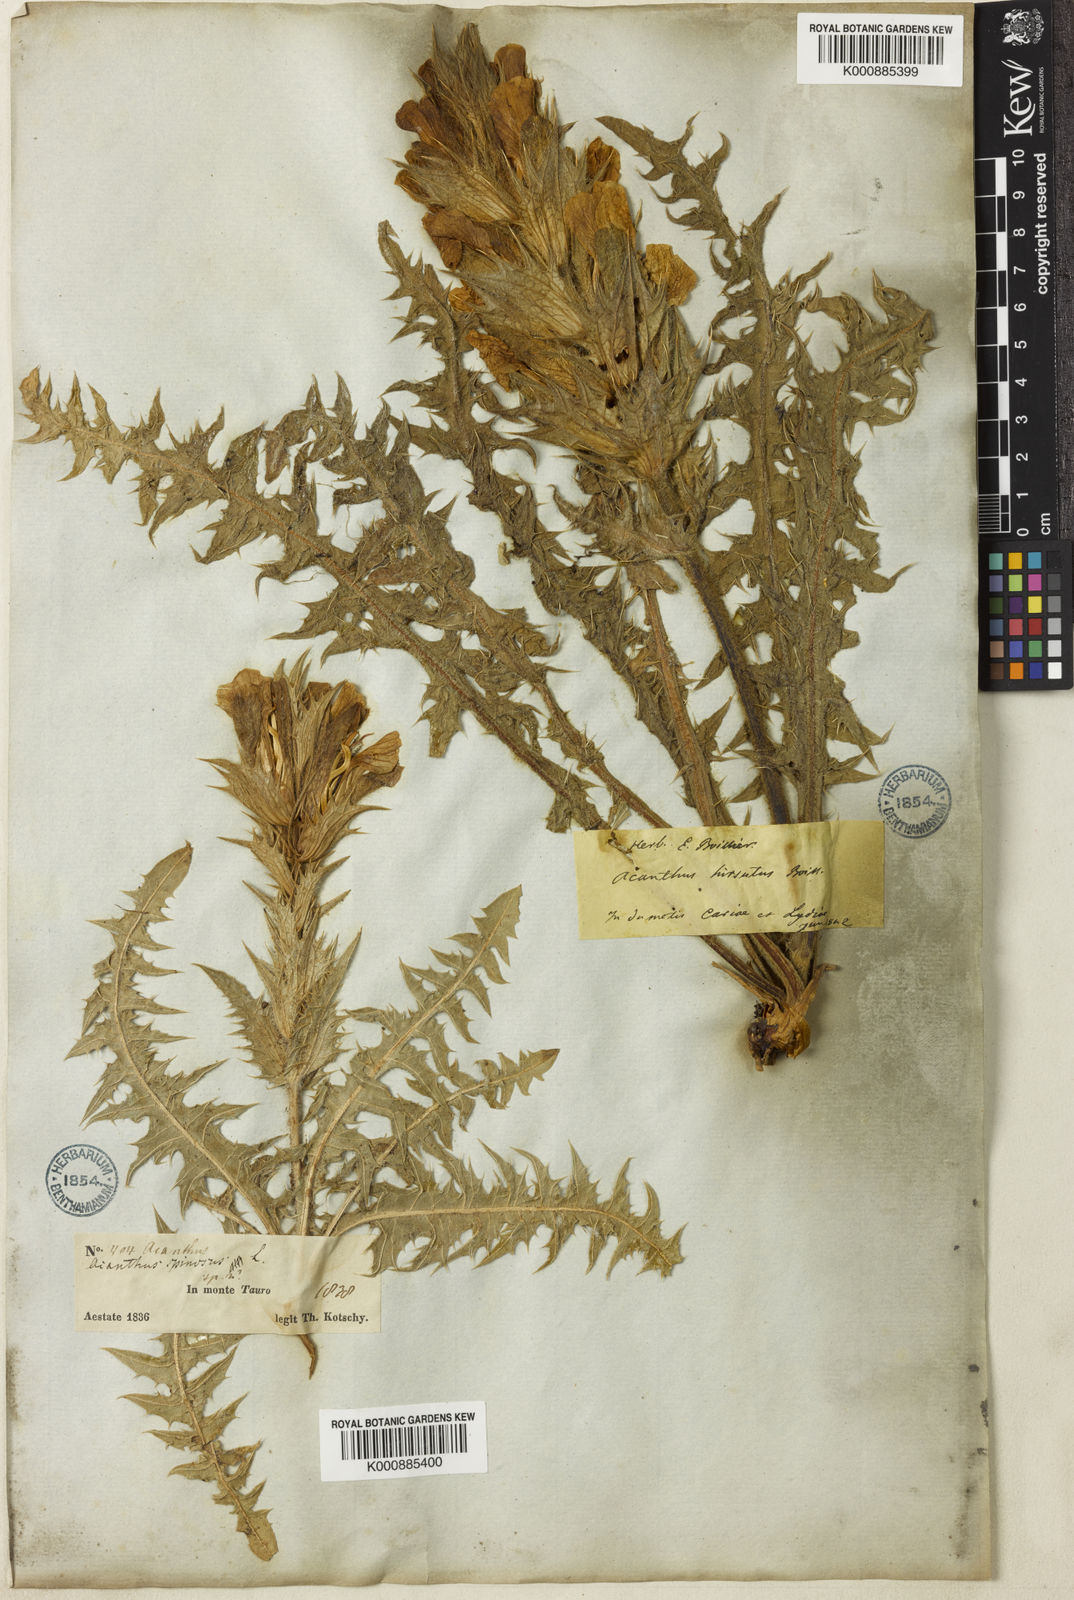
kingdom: Plantae
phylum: Tracheophyta
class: Magnoliopsida
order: Lamiales
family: Acanthaceae
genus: Acanthus
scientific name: Acanthus hirsutus
